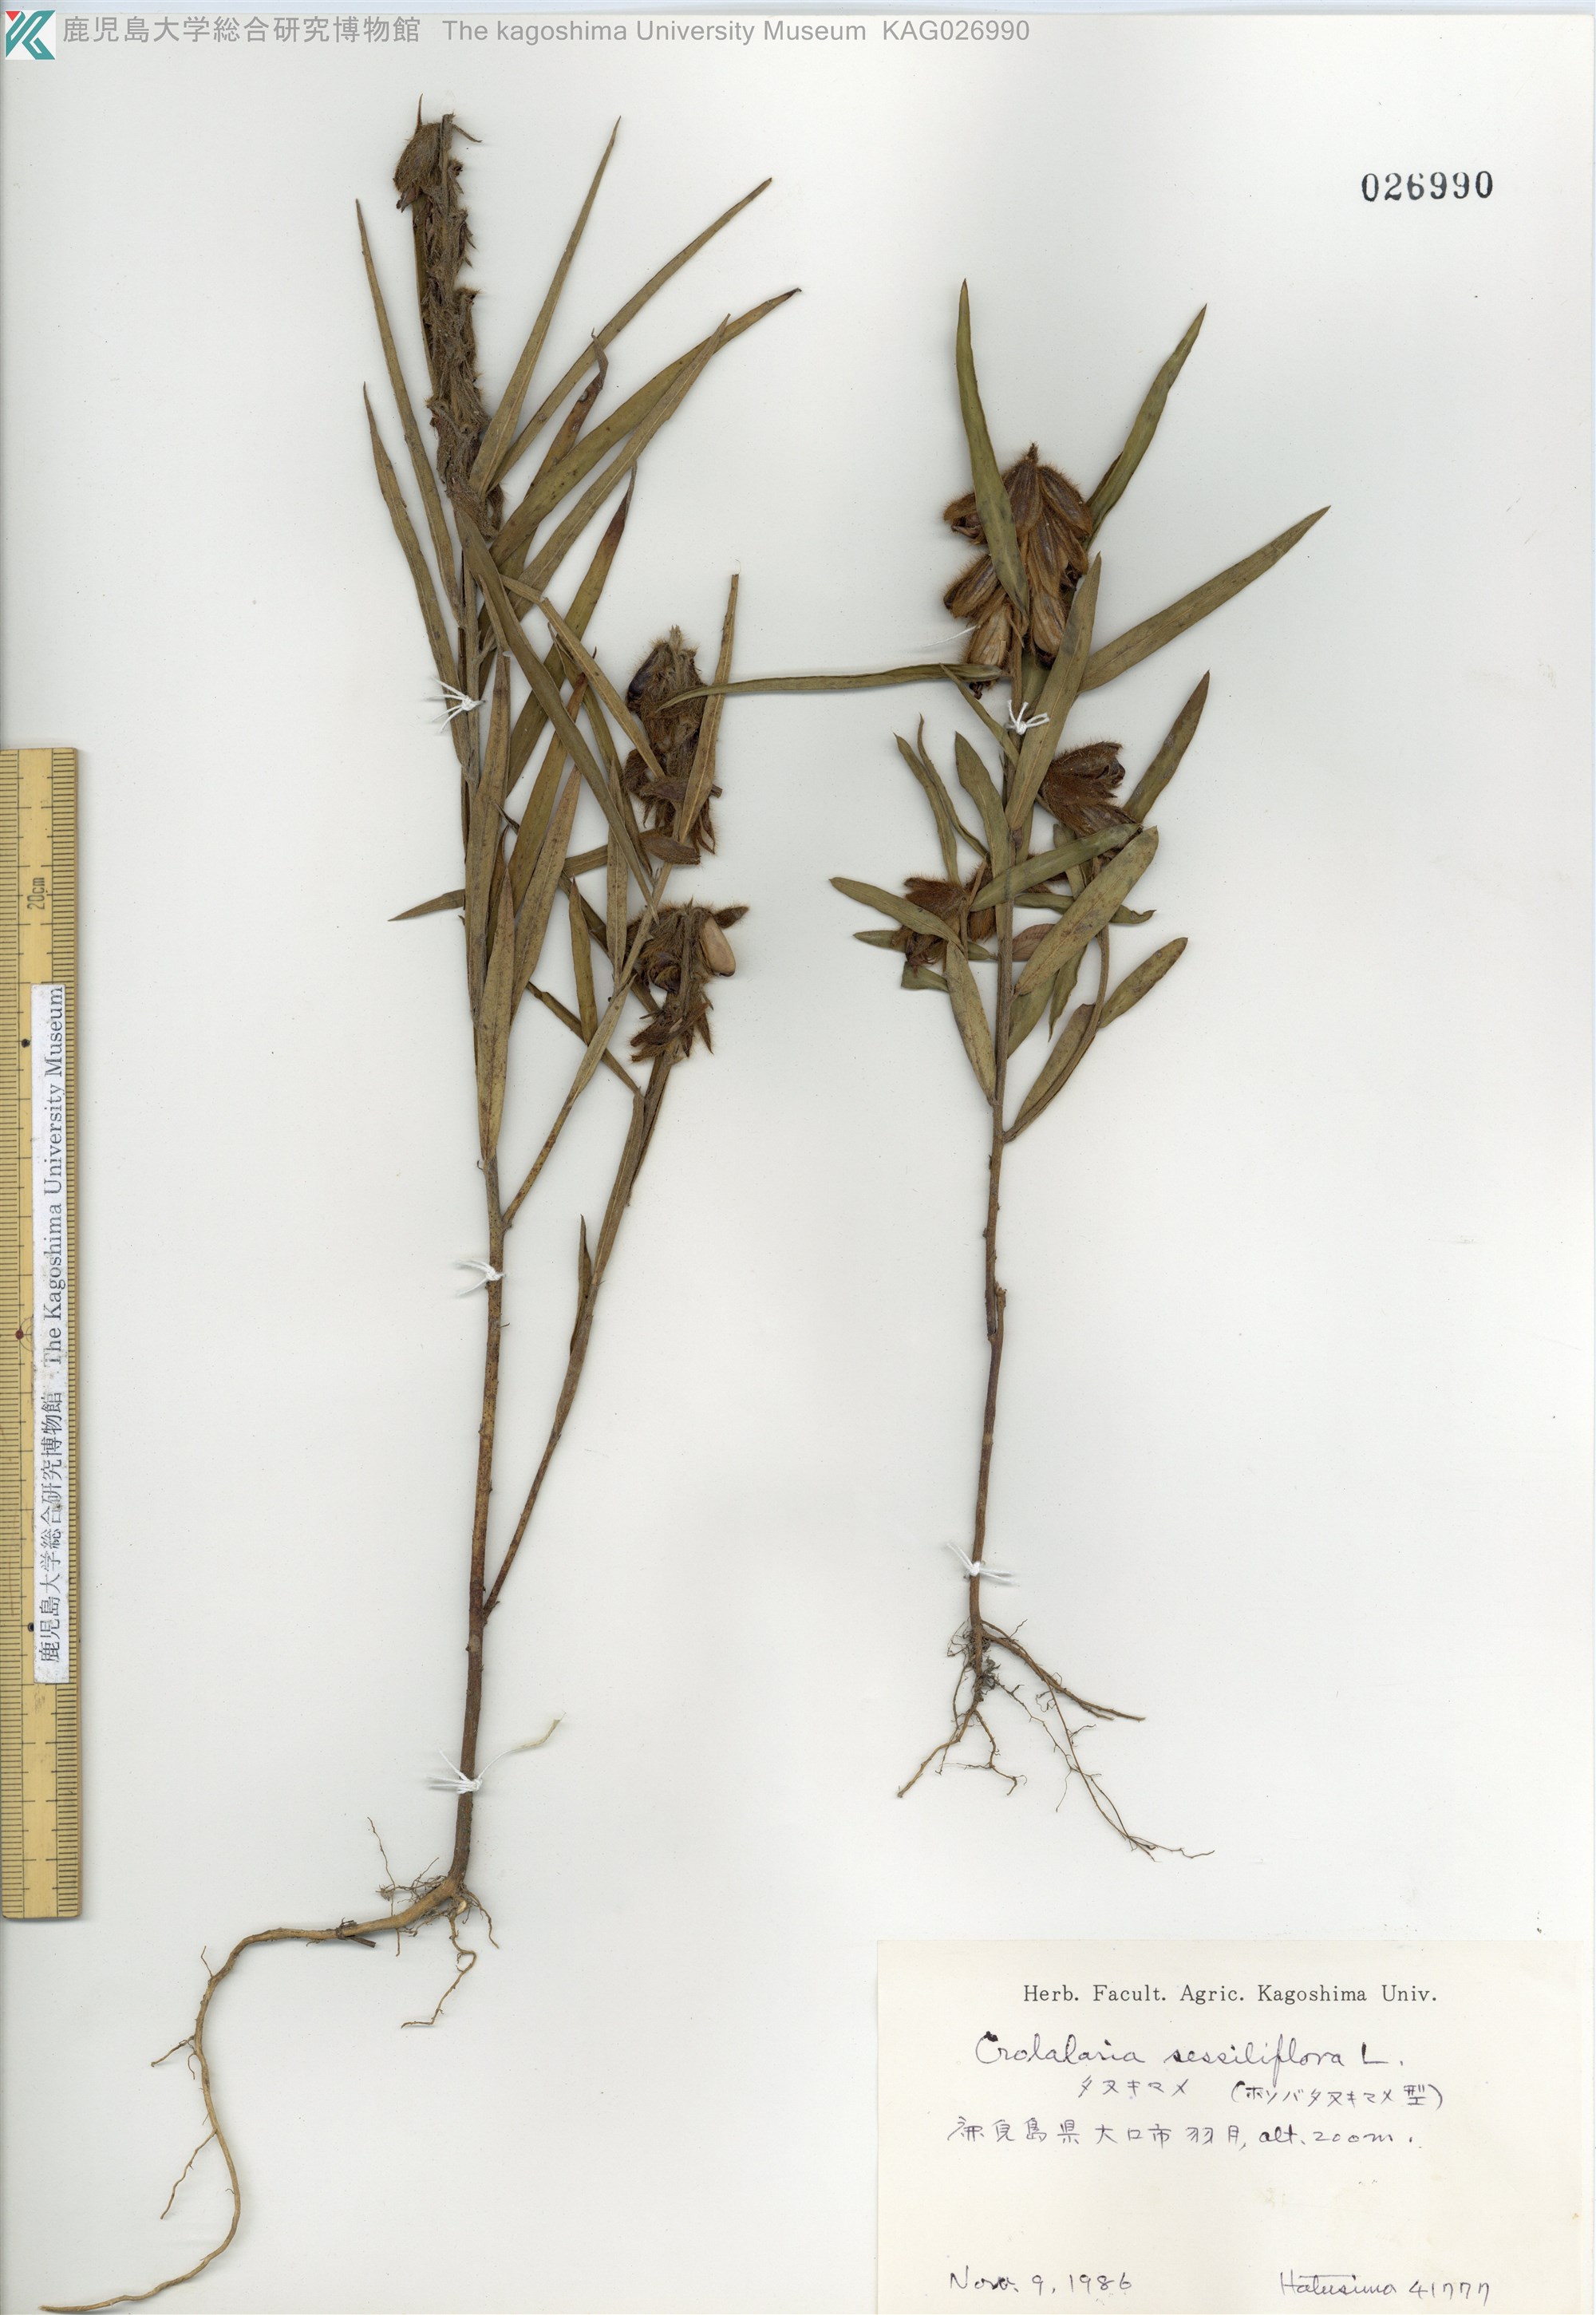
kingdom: Plantae
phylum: Tracheophyta
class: Magnoliopsida
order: Fabales
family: Fabaceae
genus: Crotalaria
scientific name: Crotalaria sessiliflora
